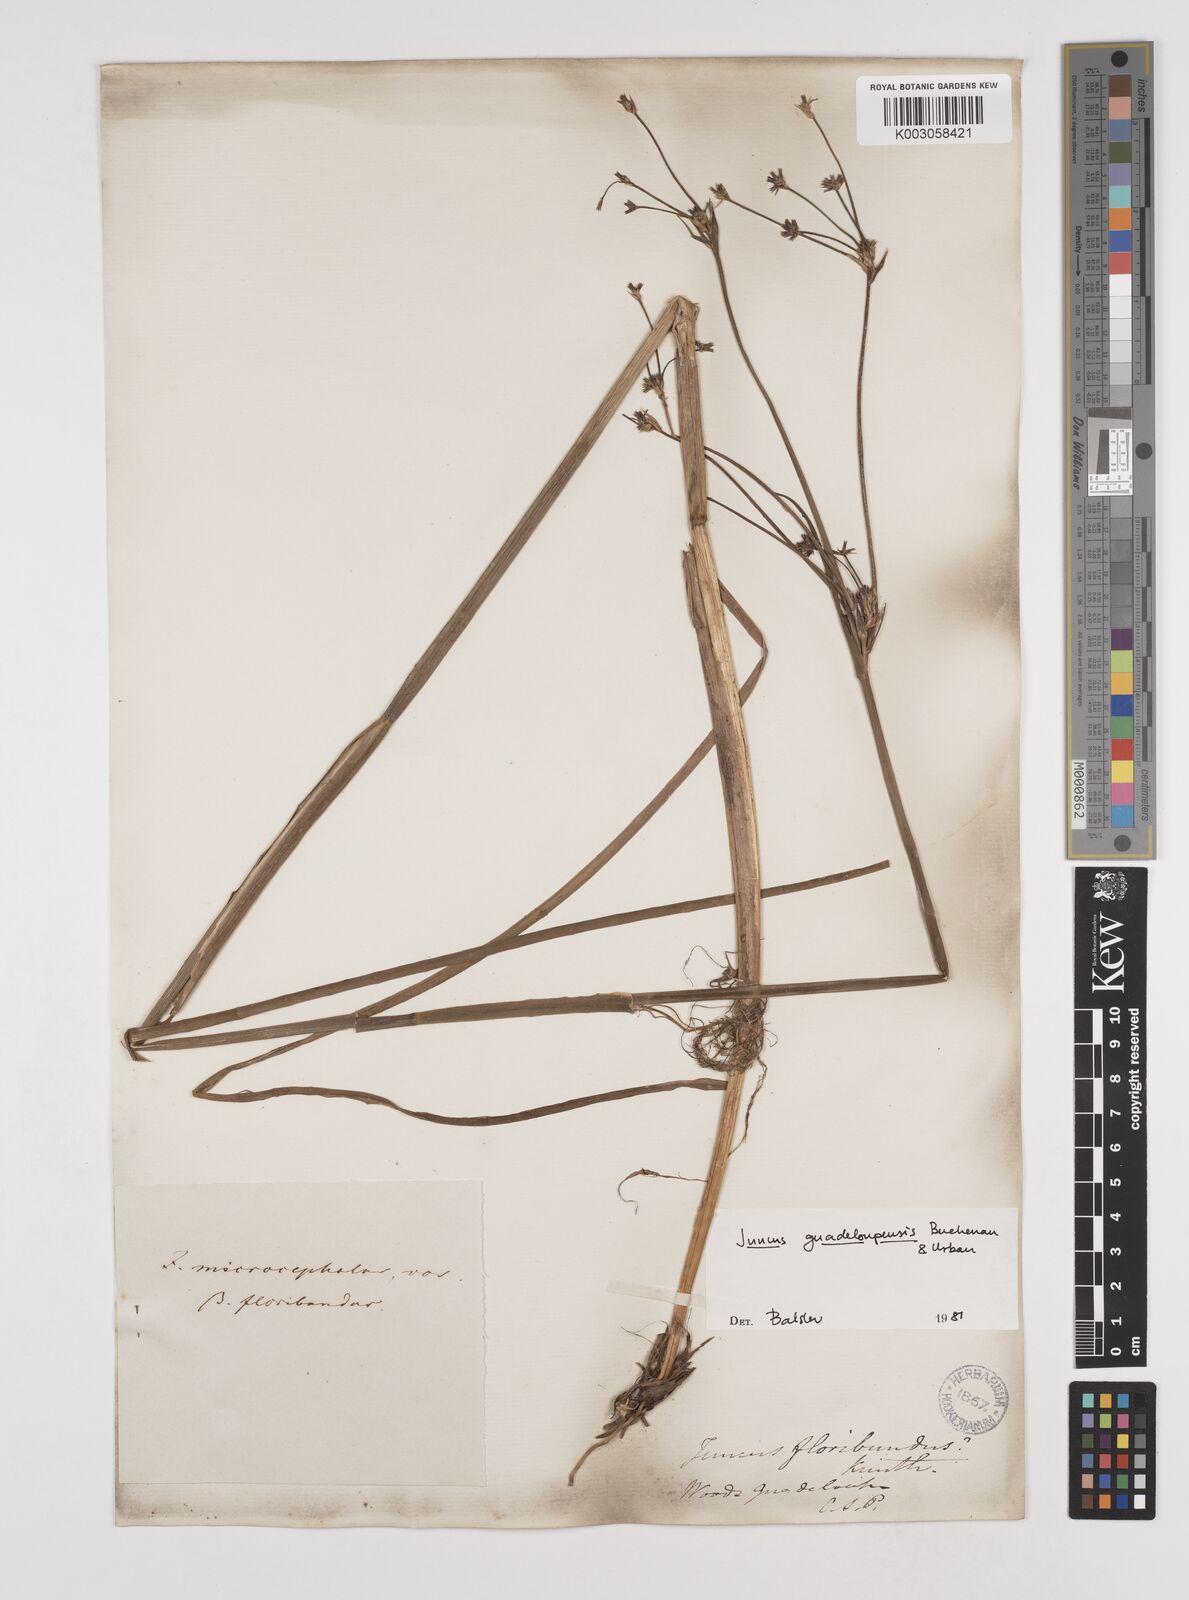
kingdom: Plantae
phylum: Tracheophyta
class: Liliopsida
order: Poales
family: Juncaceae
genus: Juncus
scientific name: Juncus guadeloupensis
